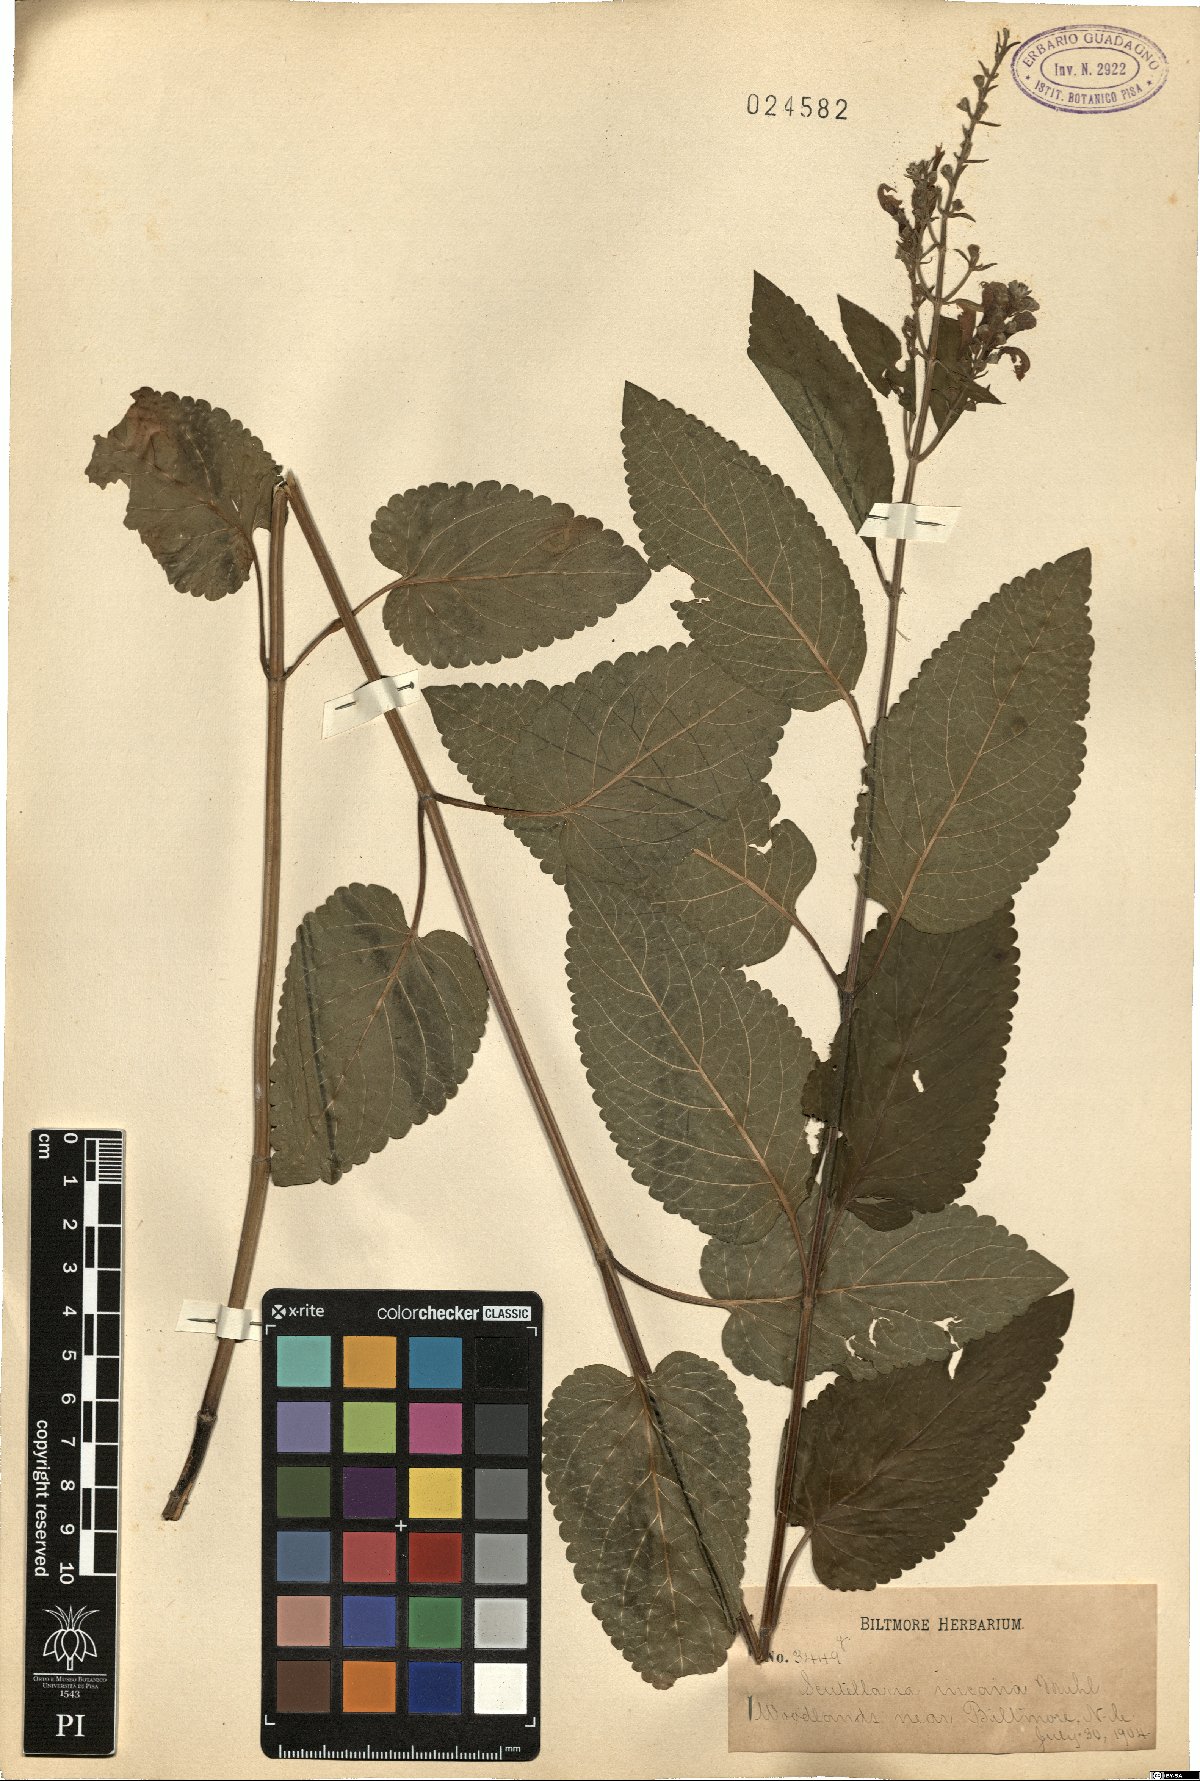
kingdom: Plantae
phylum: Tracheophyta
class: Magnoliopsida
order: Lamiales
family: Lamiaceae
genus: Scutellaria
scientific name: Scutellaria incana
